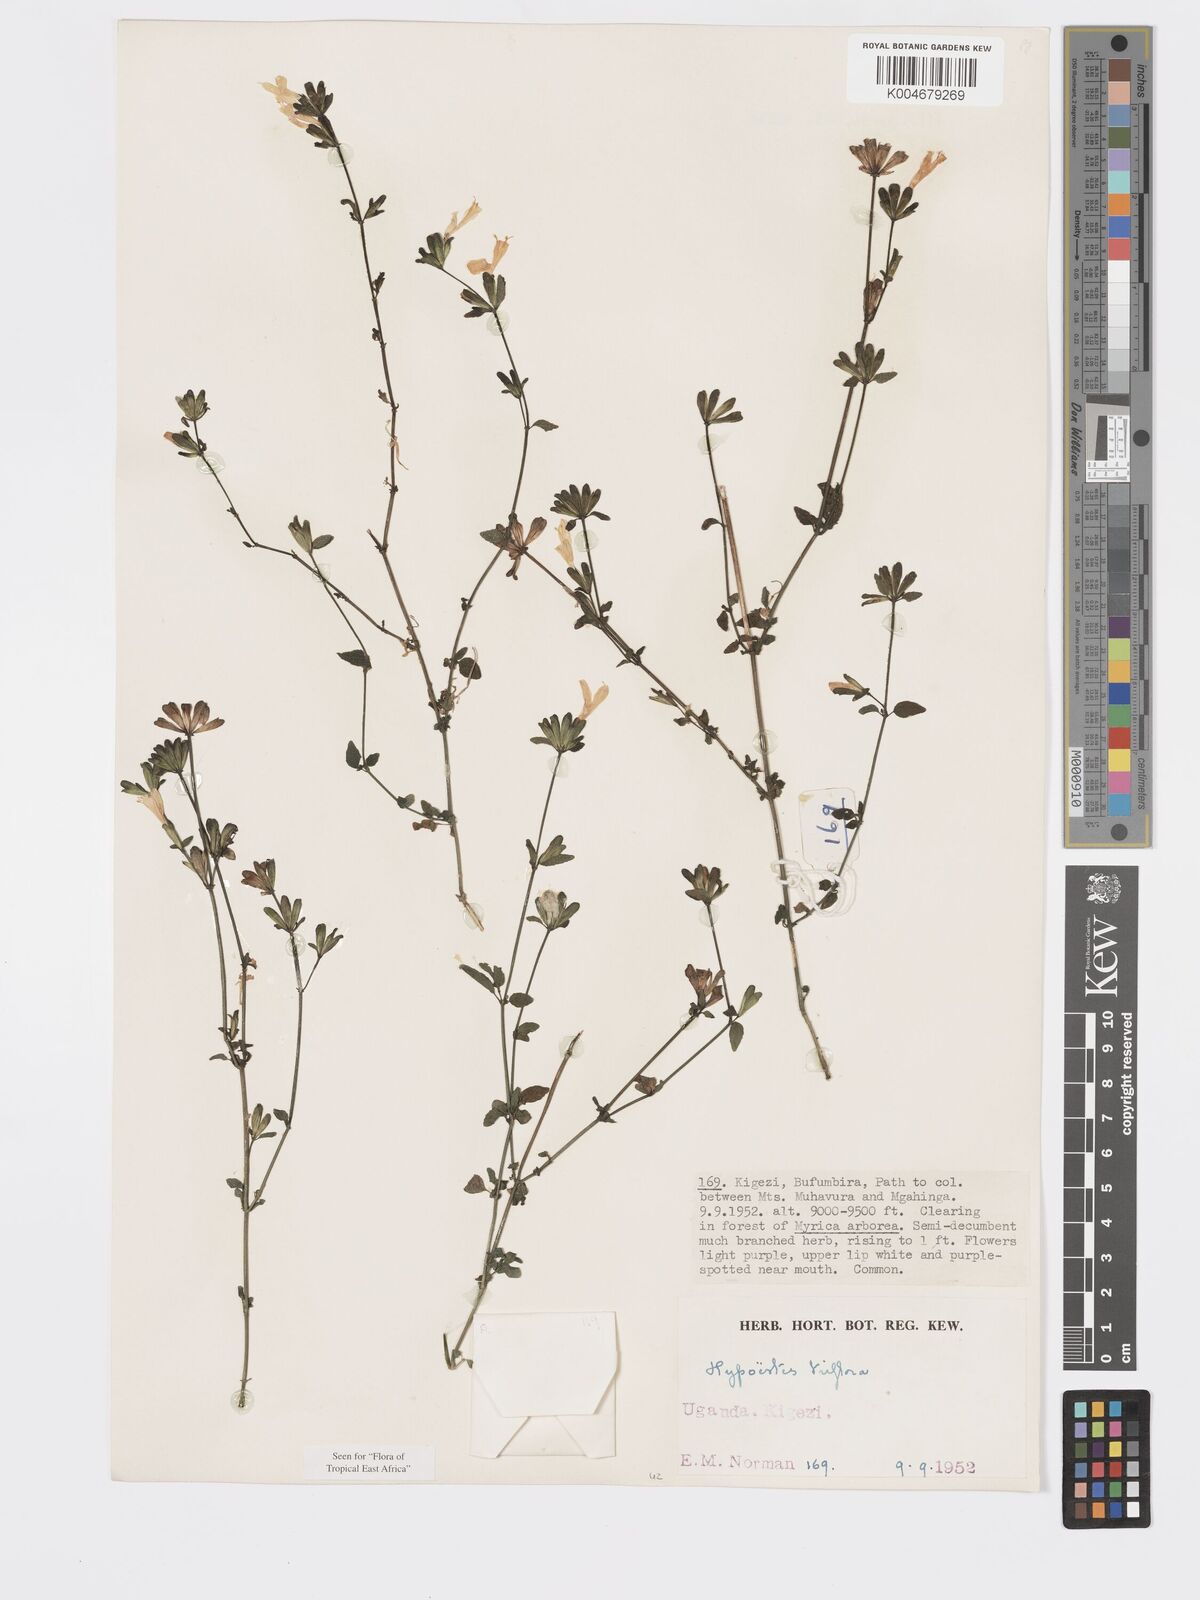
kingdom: Plantae
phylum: Tracheophyta
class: Magnoliopsida
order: Lamiales
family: Acanthaceae
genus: Hypoestes
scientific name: Hypoestes triflora
